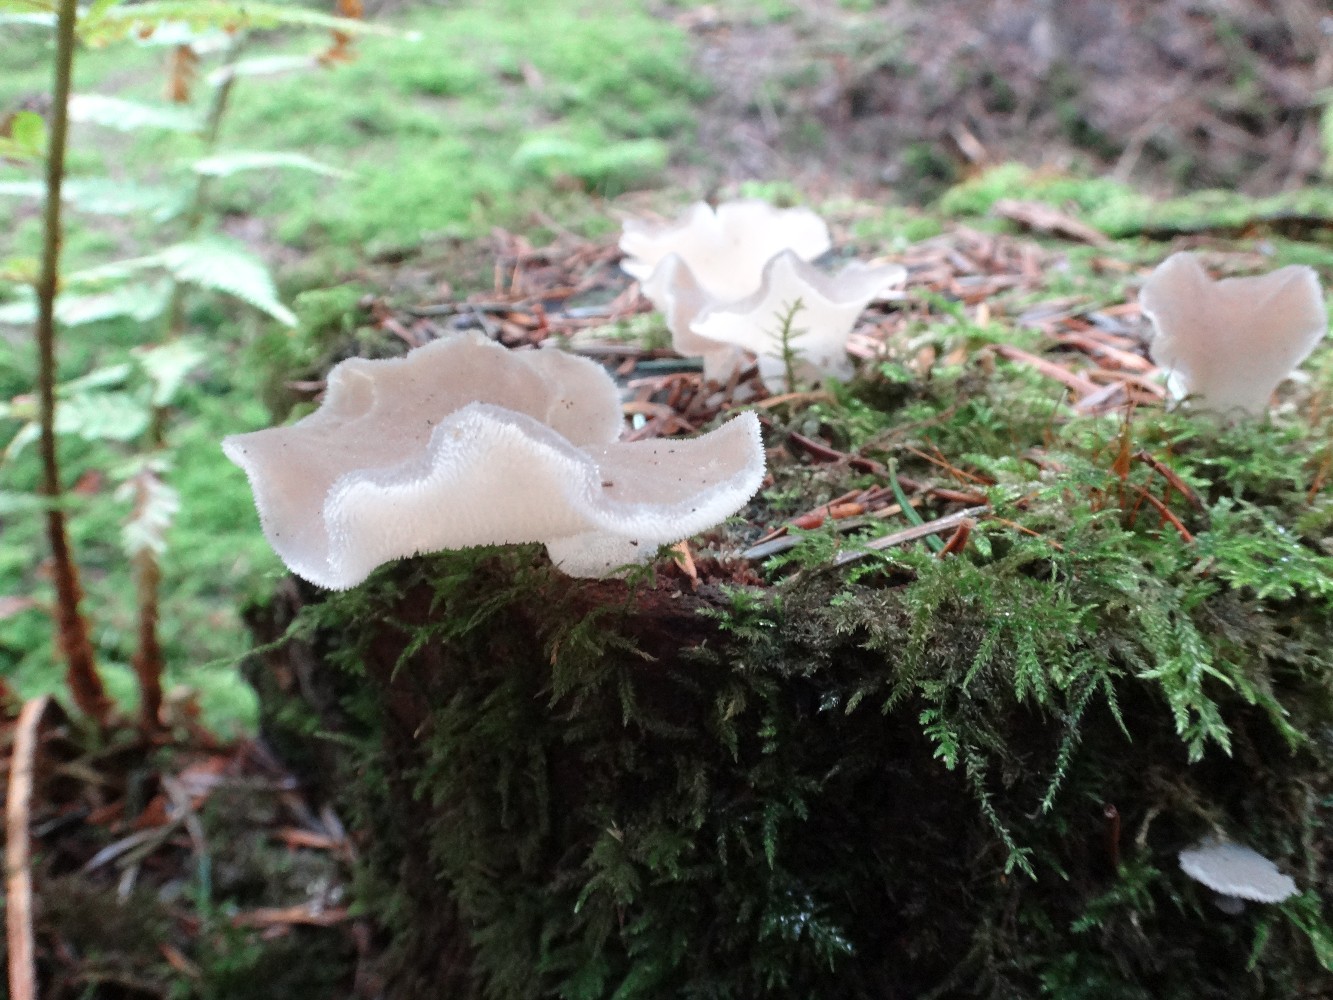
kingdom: Fungi
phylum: Basidiomycota
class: Agaricomycetes
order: Auriculariales
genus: Pseudohydnum
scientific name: Pseudohydnum gelatinosum
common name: bævretand
